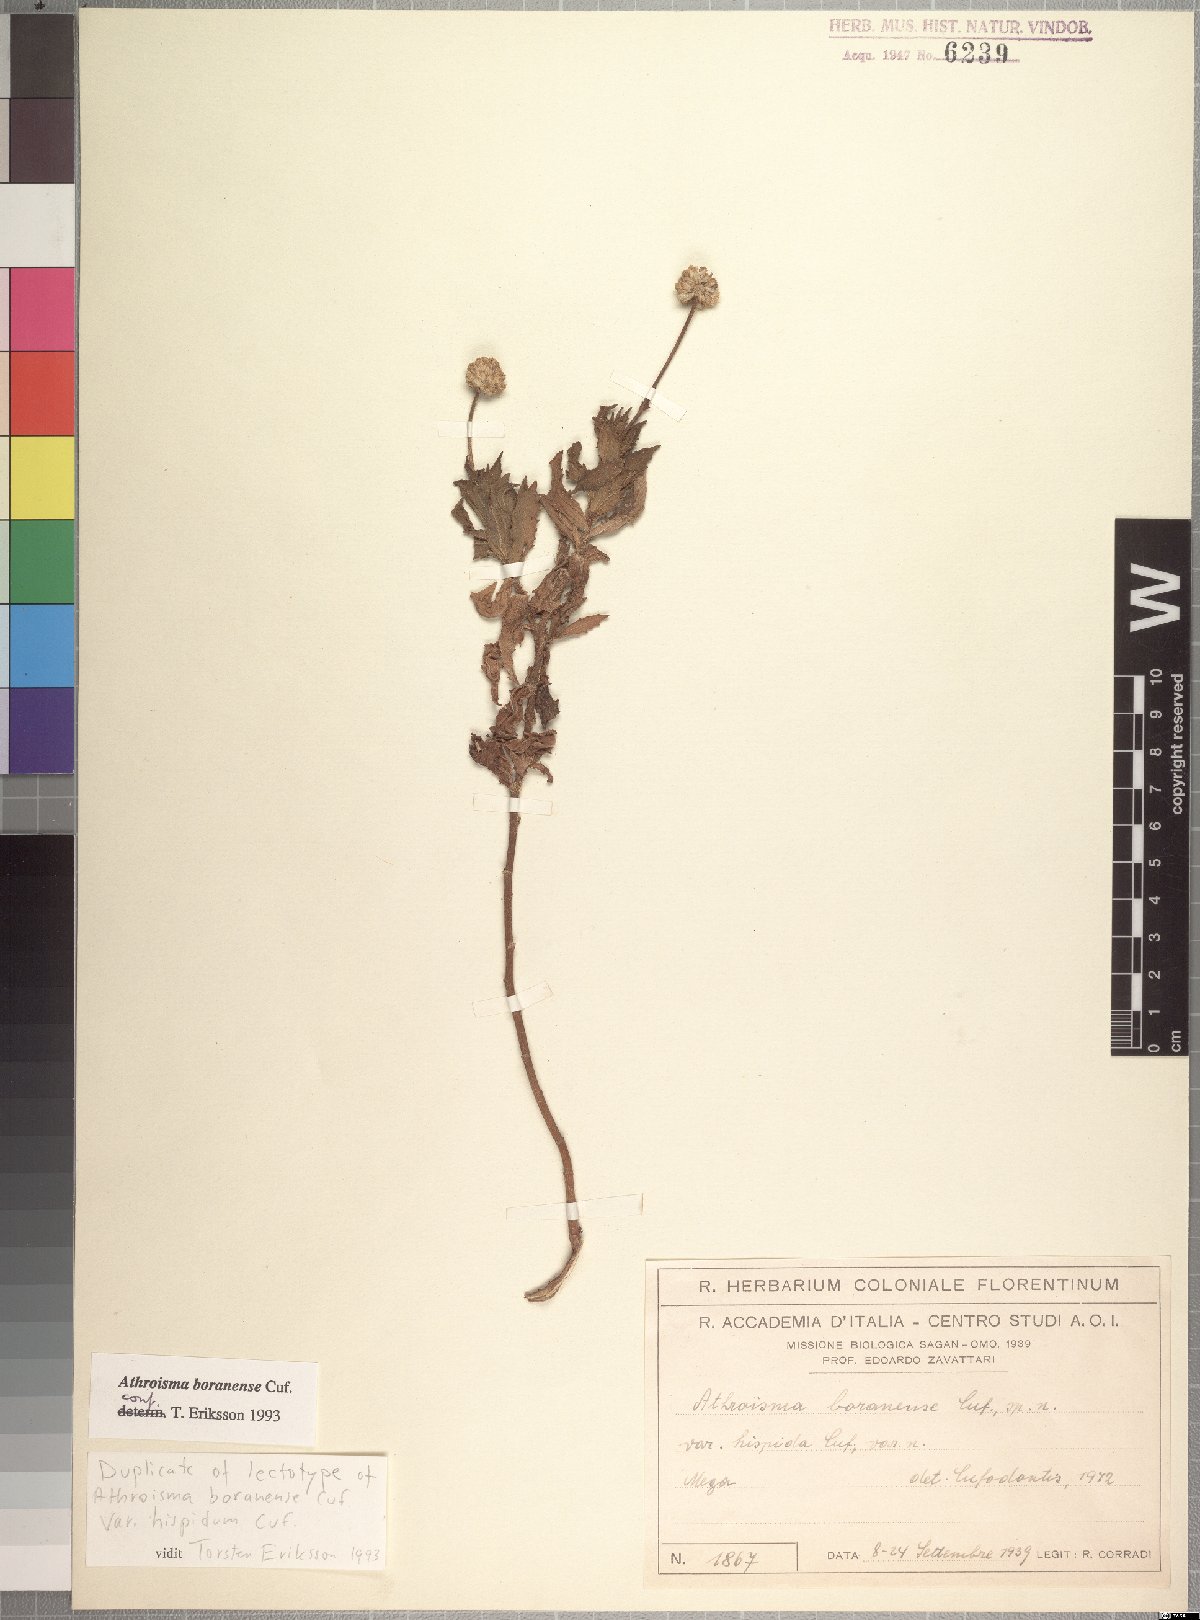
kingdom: Plantae
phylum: Tracheophyta
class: Magnoliopsida
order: Asterales
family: Asteraceae
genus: Athroisma
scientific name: Athroisma boranense
